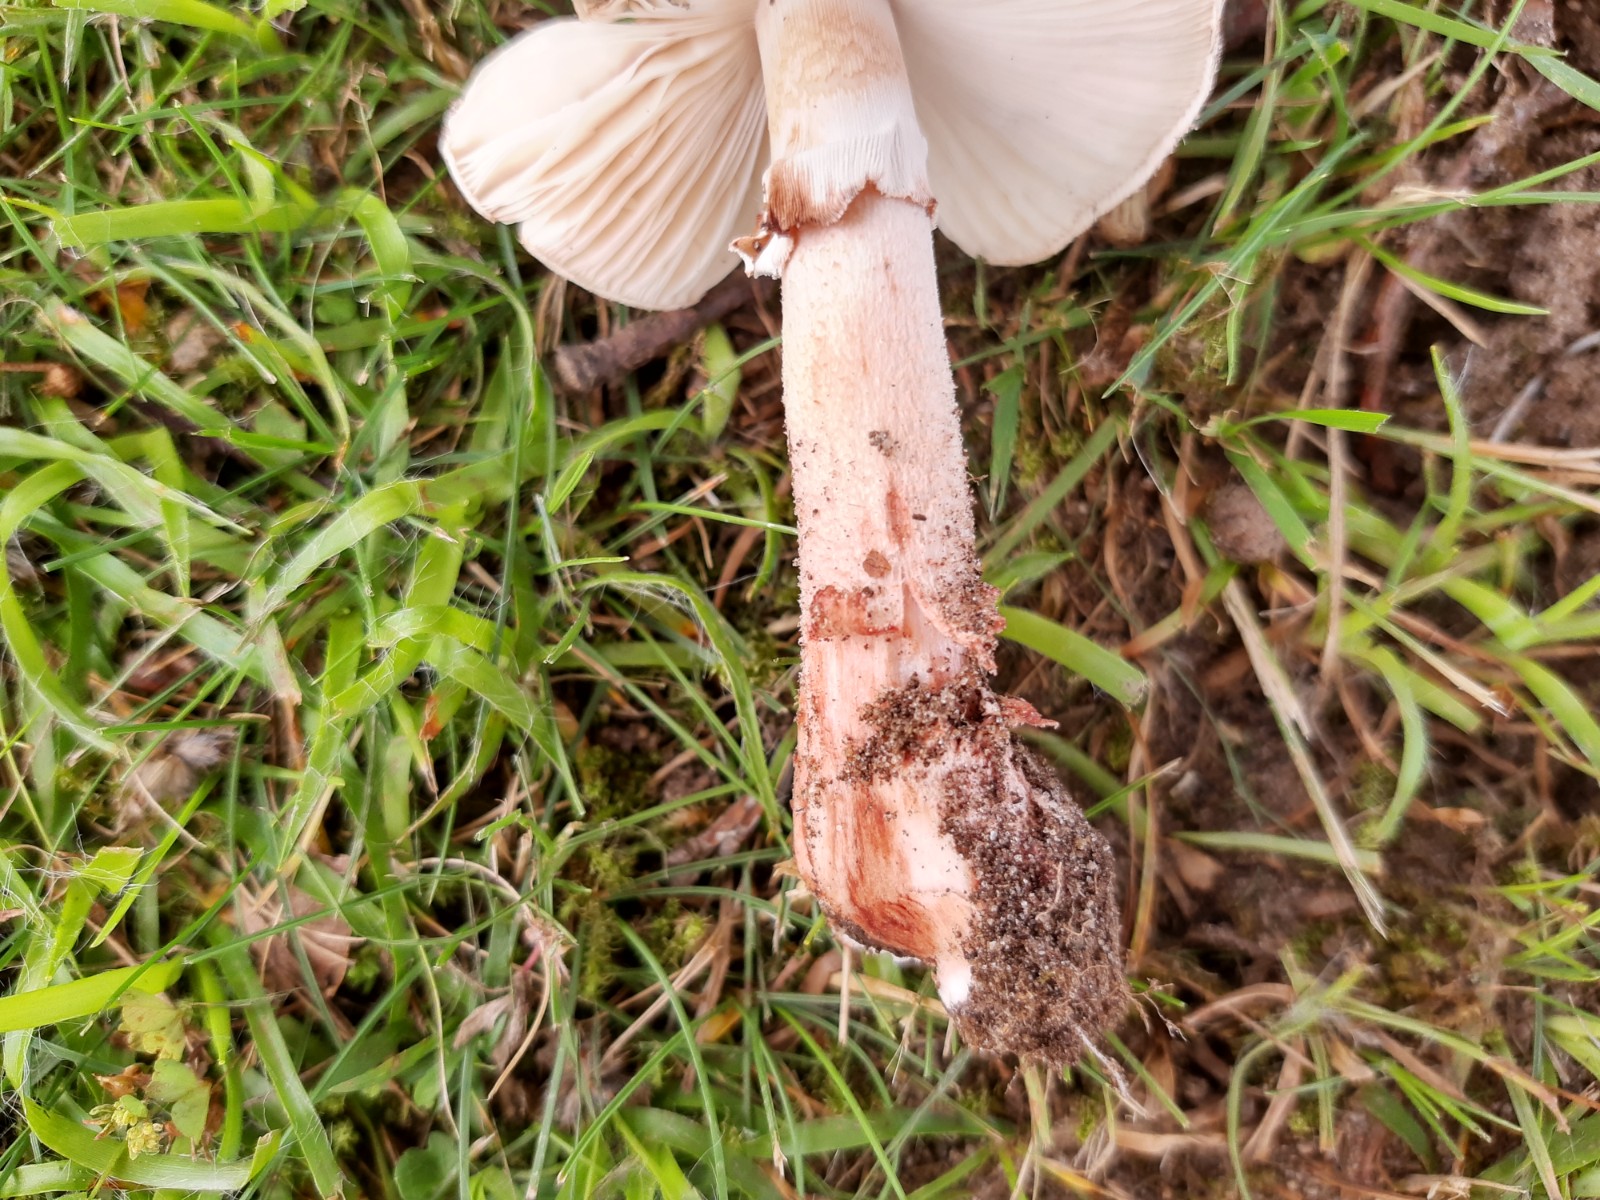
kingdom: Fungi
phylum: Basidiomycota
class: Agaricomycetes
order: Agaricales
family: Amanitaceae
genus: Amanita
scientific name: Amanita rubescens
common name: rødmende fluesvamp
